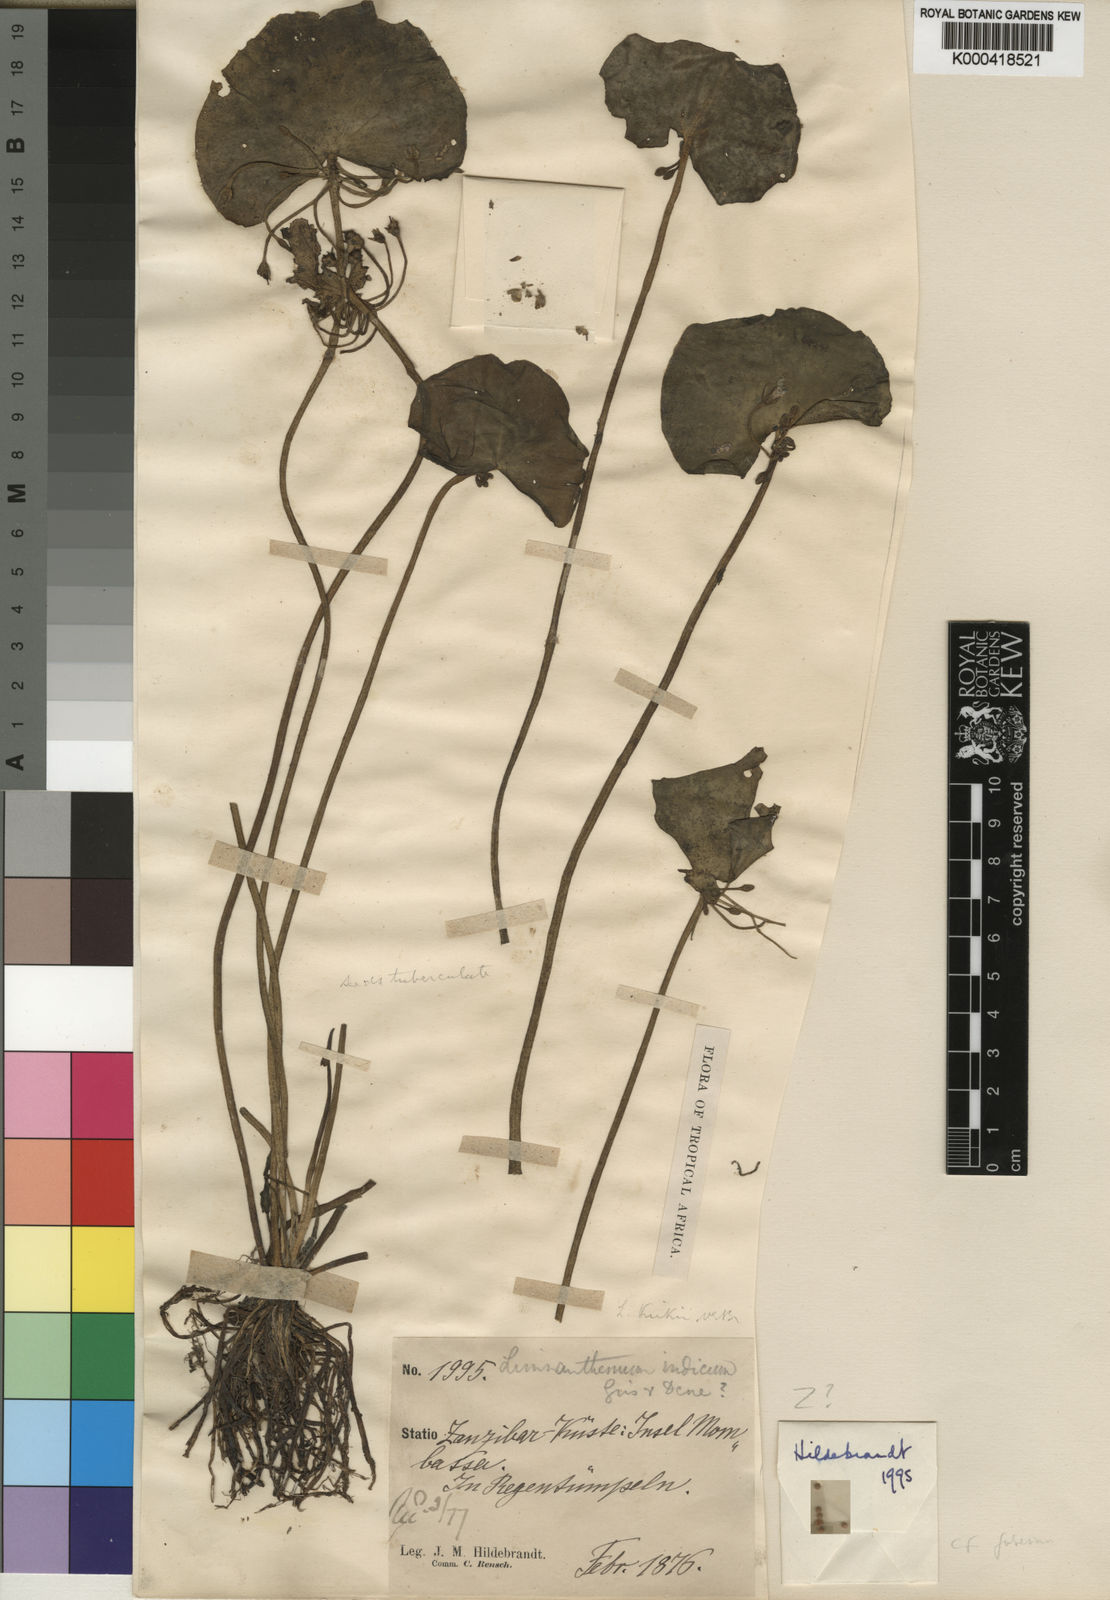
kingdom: Plantae
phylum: Tracheophyta
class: Magnoliopsida
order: Asterales
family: Menyanthaceae
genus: Nymphoides
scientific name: Nymphoides indica
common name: Water-snowflake
